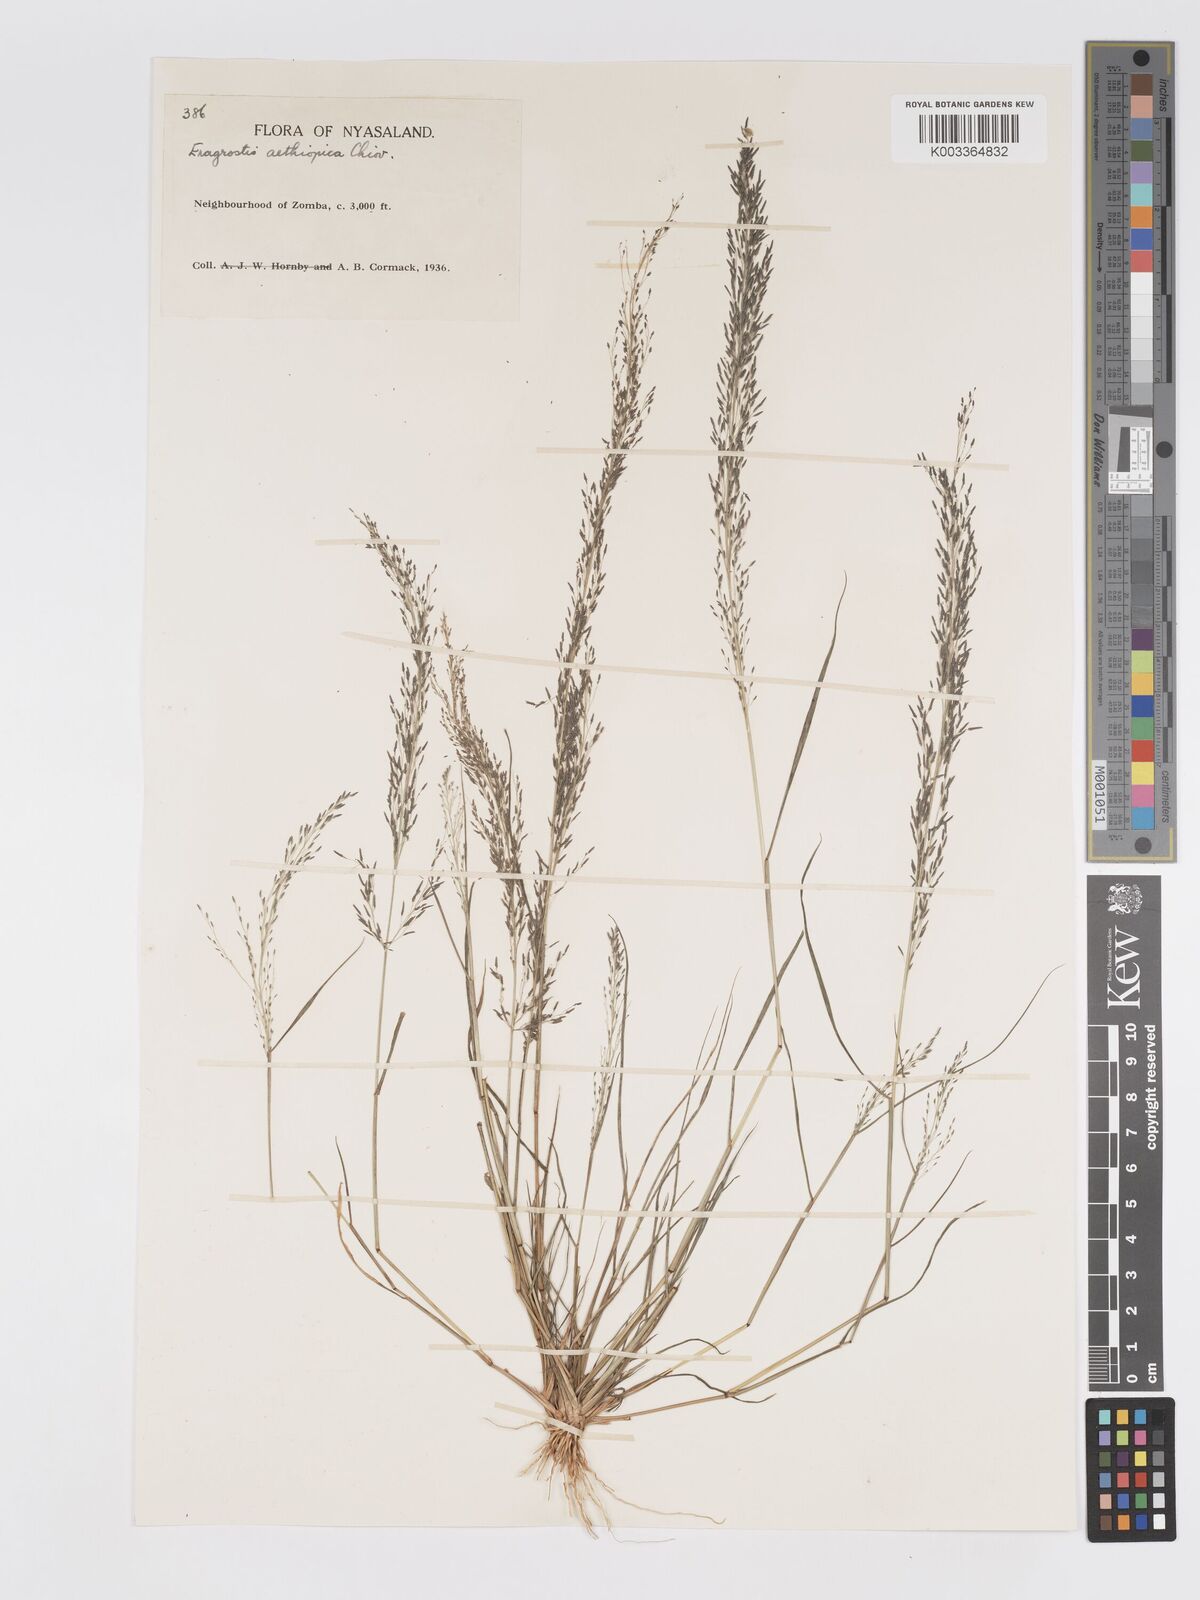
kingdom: Plantae
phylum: Tracheophyta
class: Liliopsida
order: Poales
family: Poaceae
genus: Eragrostis
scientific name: Eragrostis aethiopica
